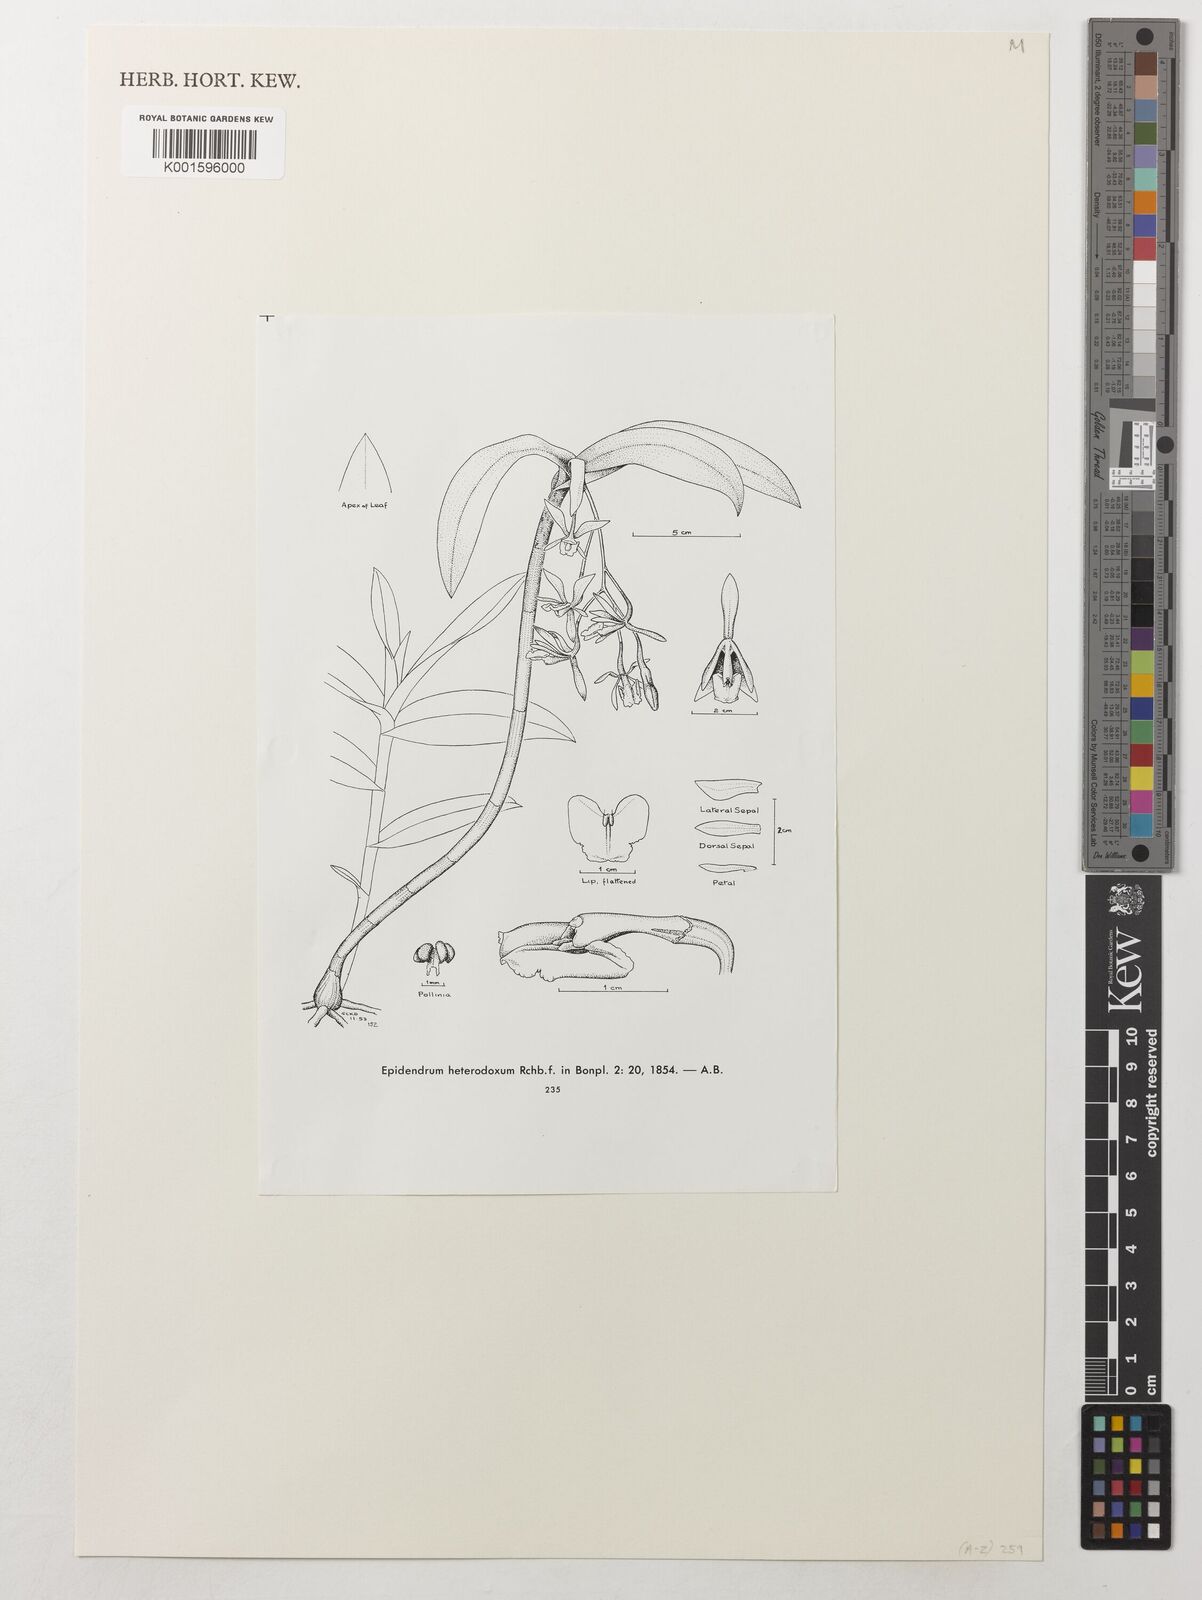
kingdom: Plantae
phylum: Tracheophyta
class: Magnoliopsida
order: Laurales
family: Monimiaceae
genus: Tambourissa
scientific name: Tambourissa thouvenotii
